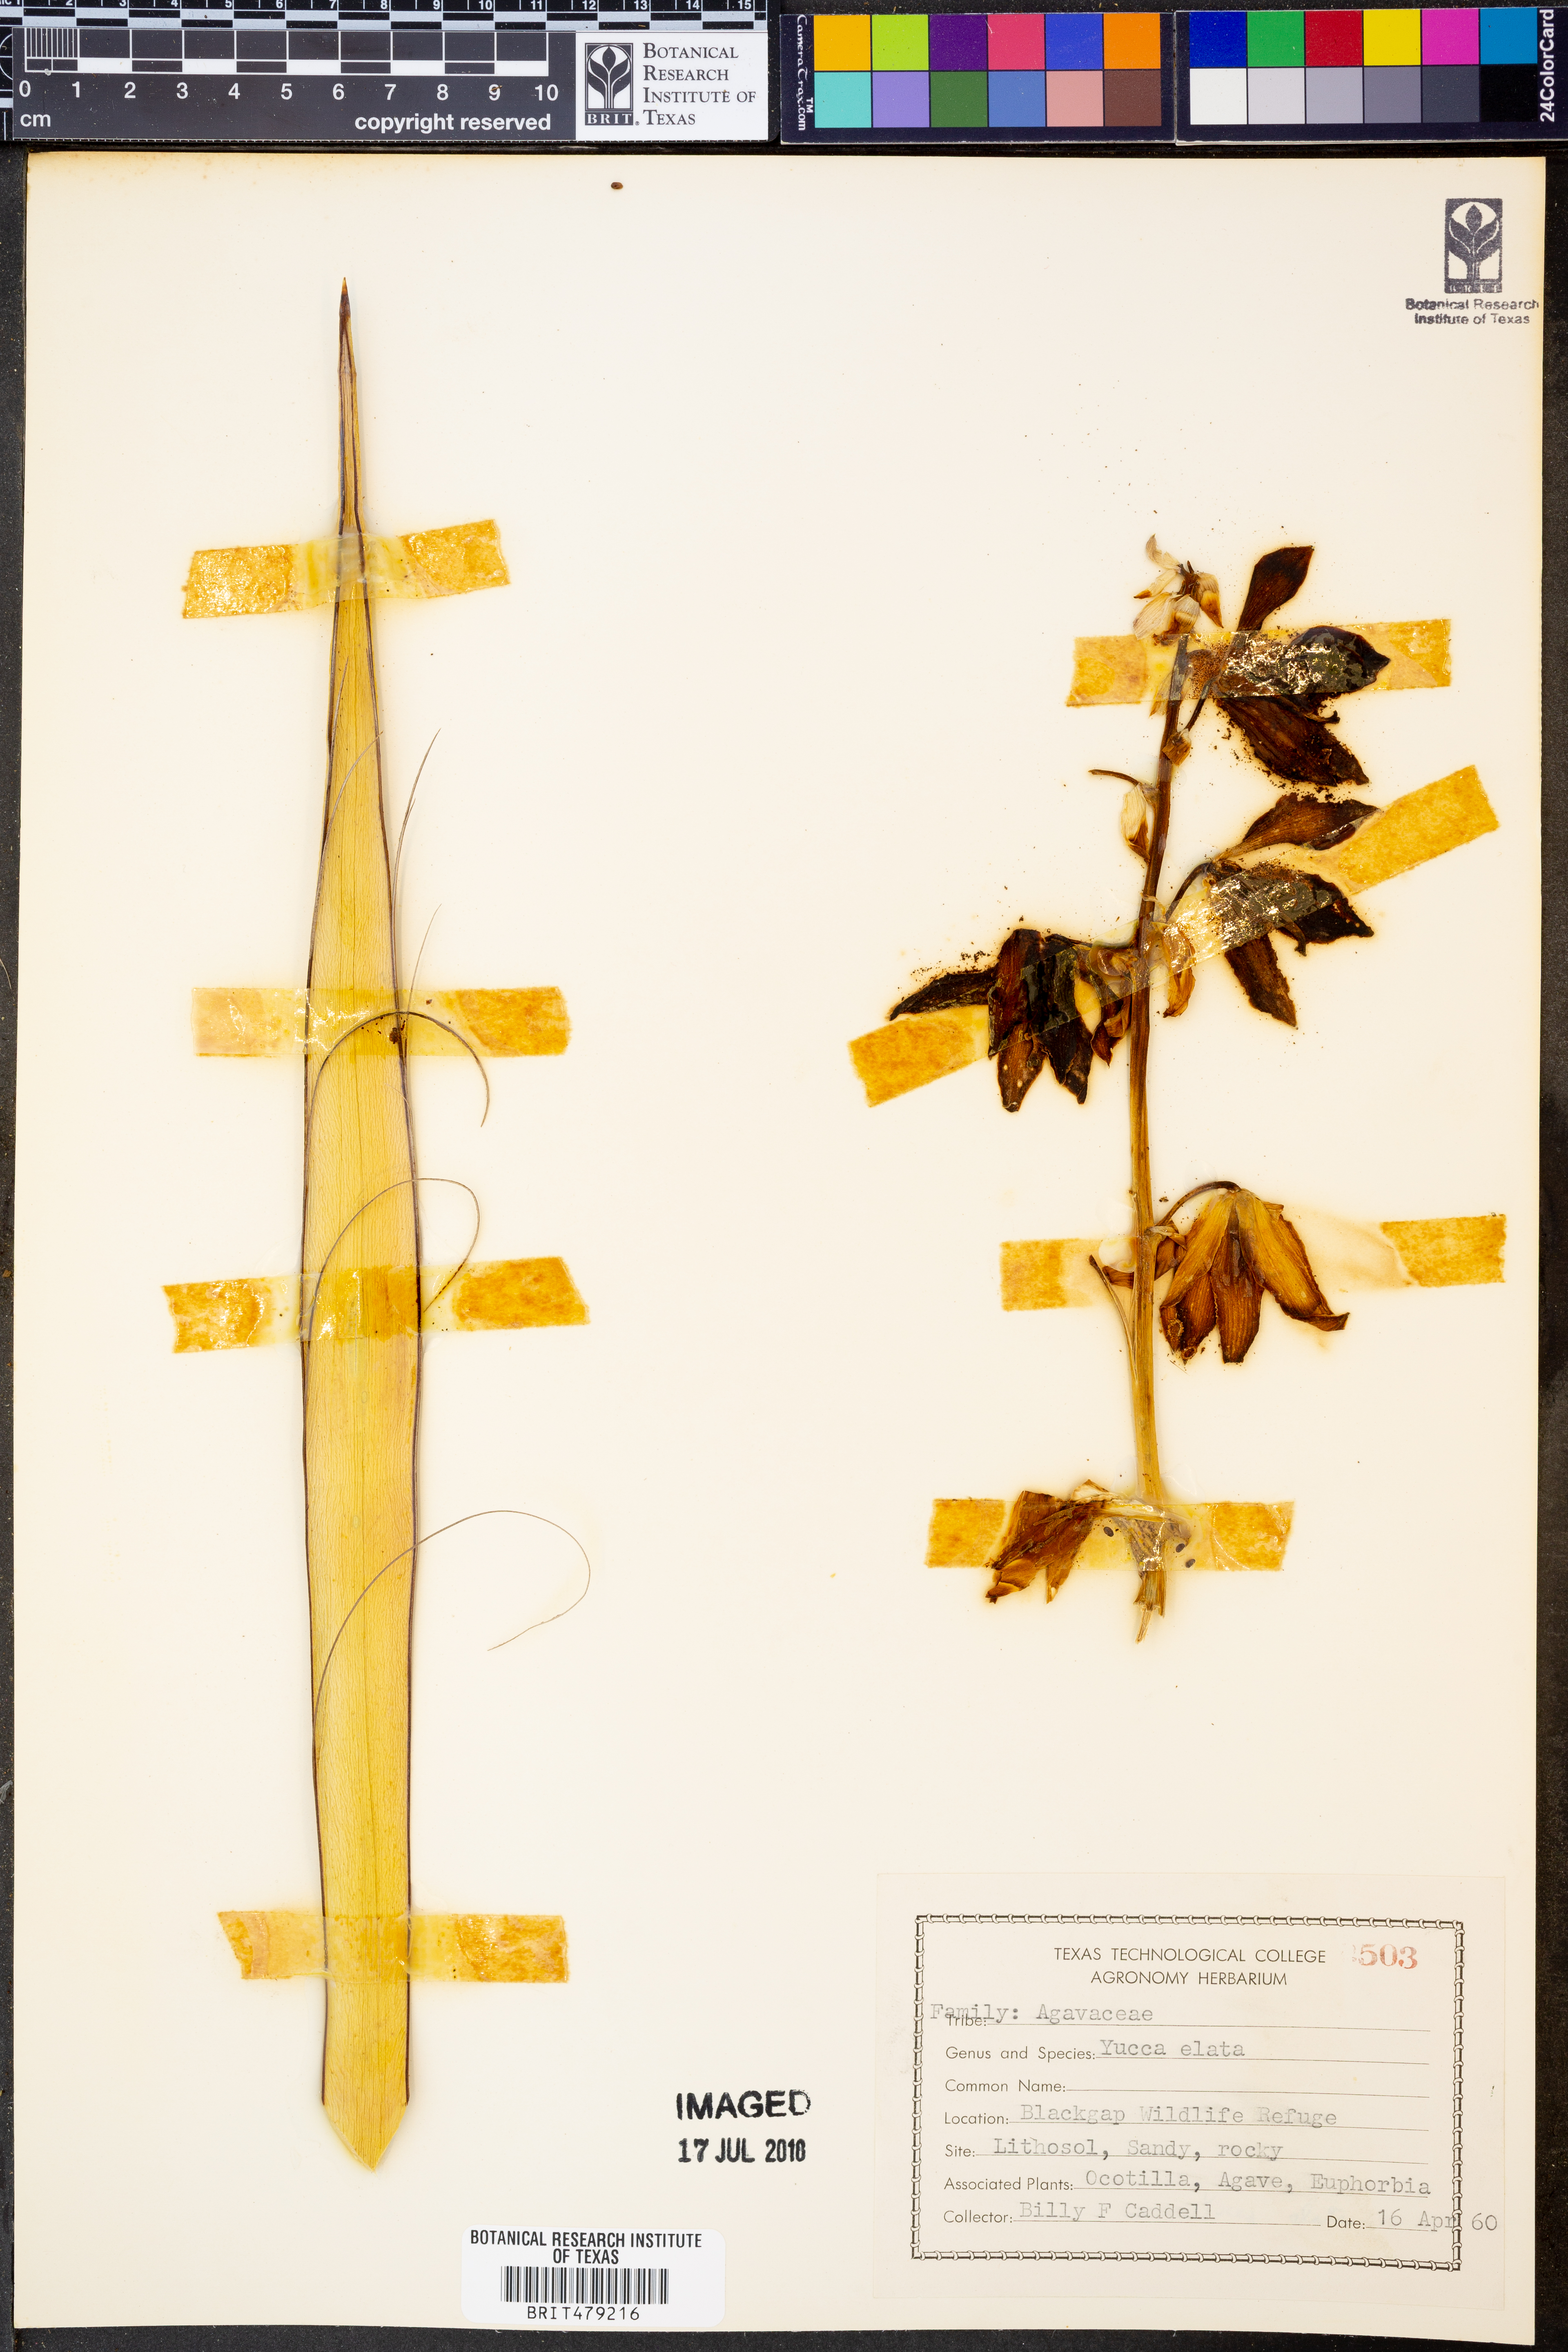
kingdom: Plantae
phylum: Tracheophyta
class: Liliopsida
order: Asparagales
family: Asparagaceae
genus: Yucca
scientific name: Yucca elata
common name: Palmella
